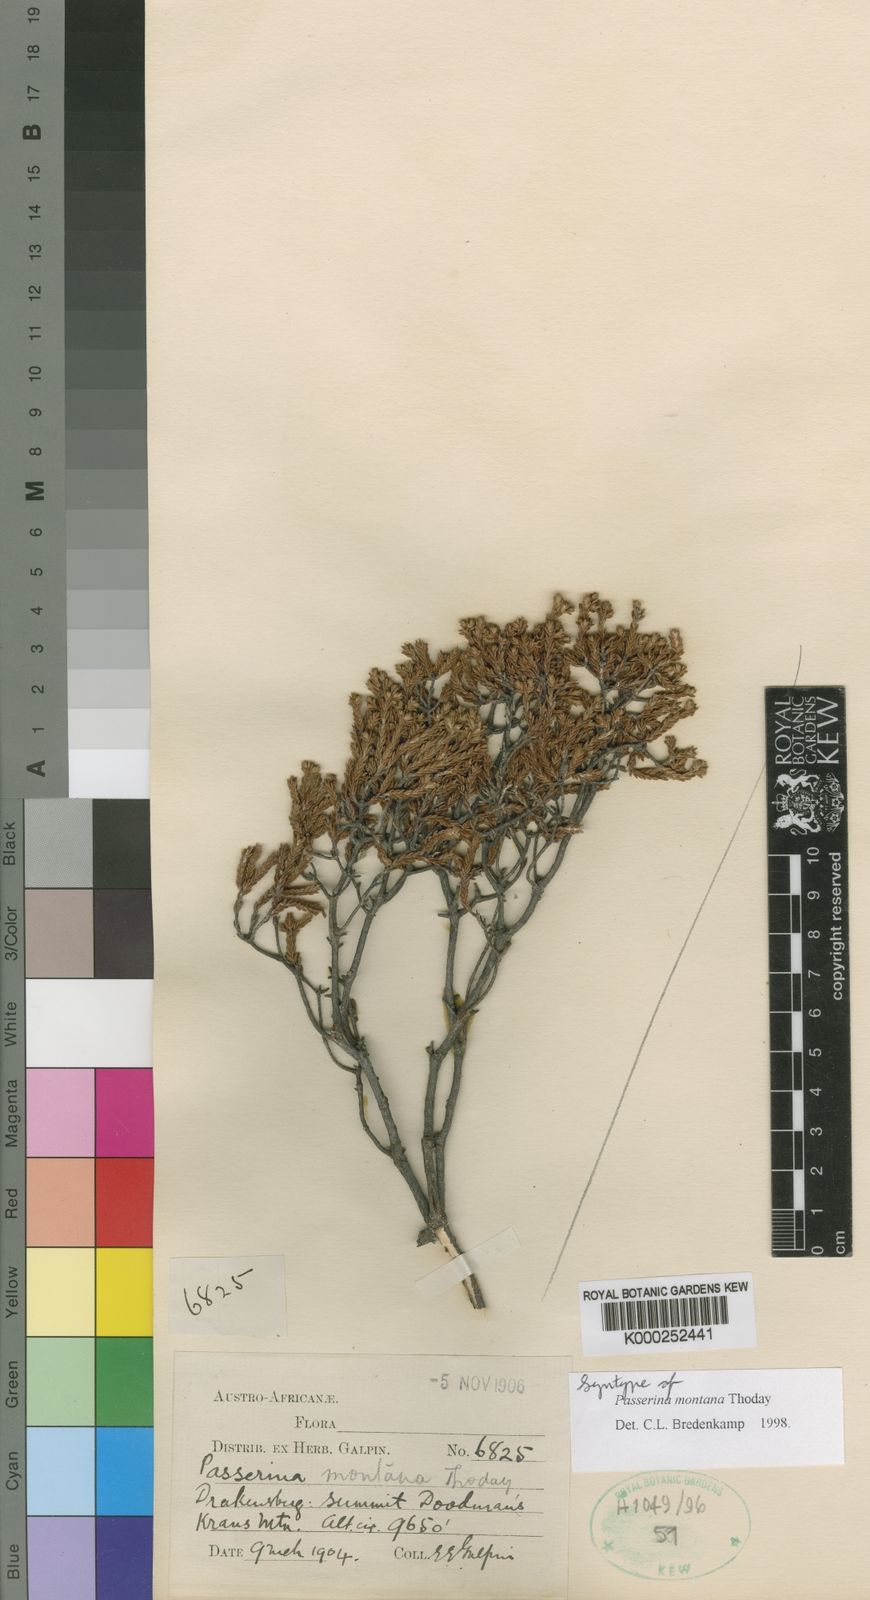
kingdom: Plantae
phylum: Tracheophyta
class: Magnoliopsida
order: Malvales
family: Thymelaeaceae
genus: Passerina
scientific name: Passerina montana
